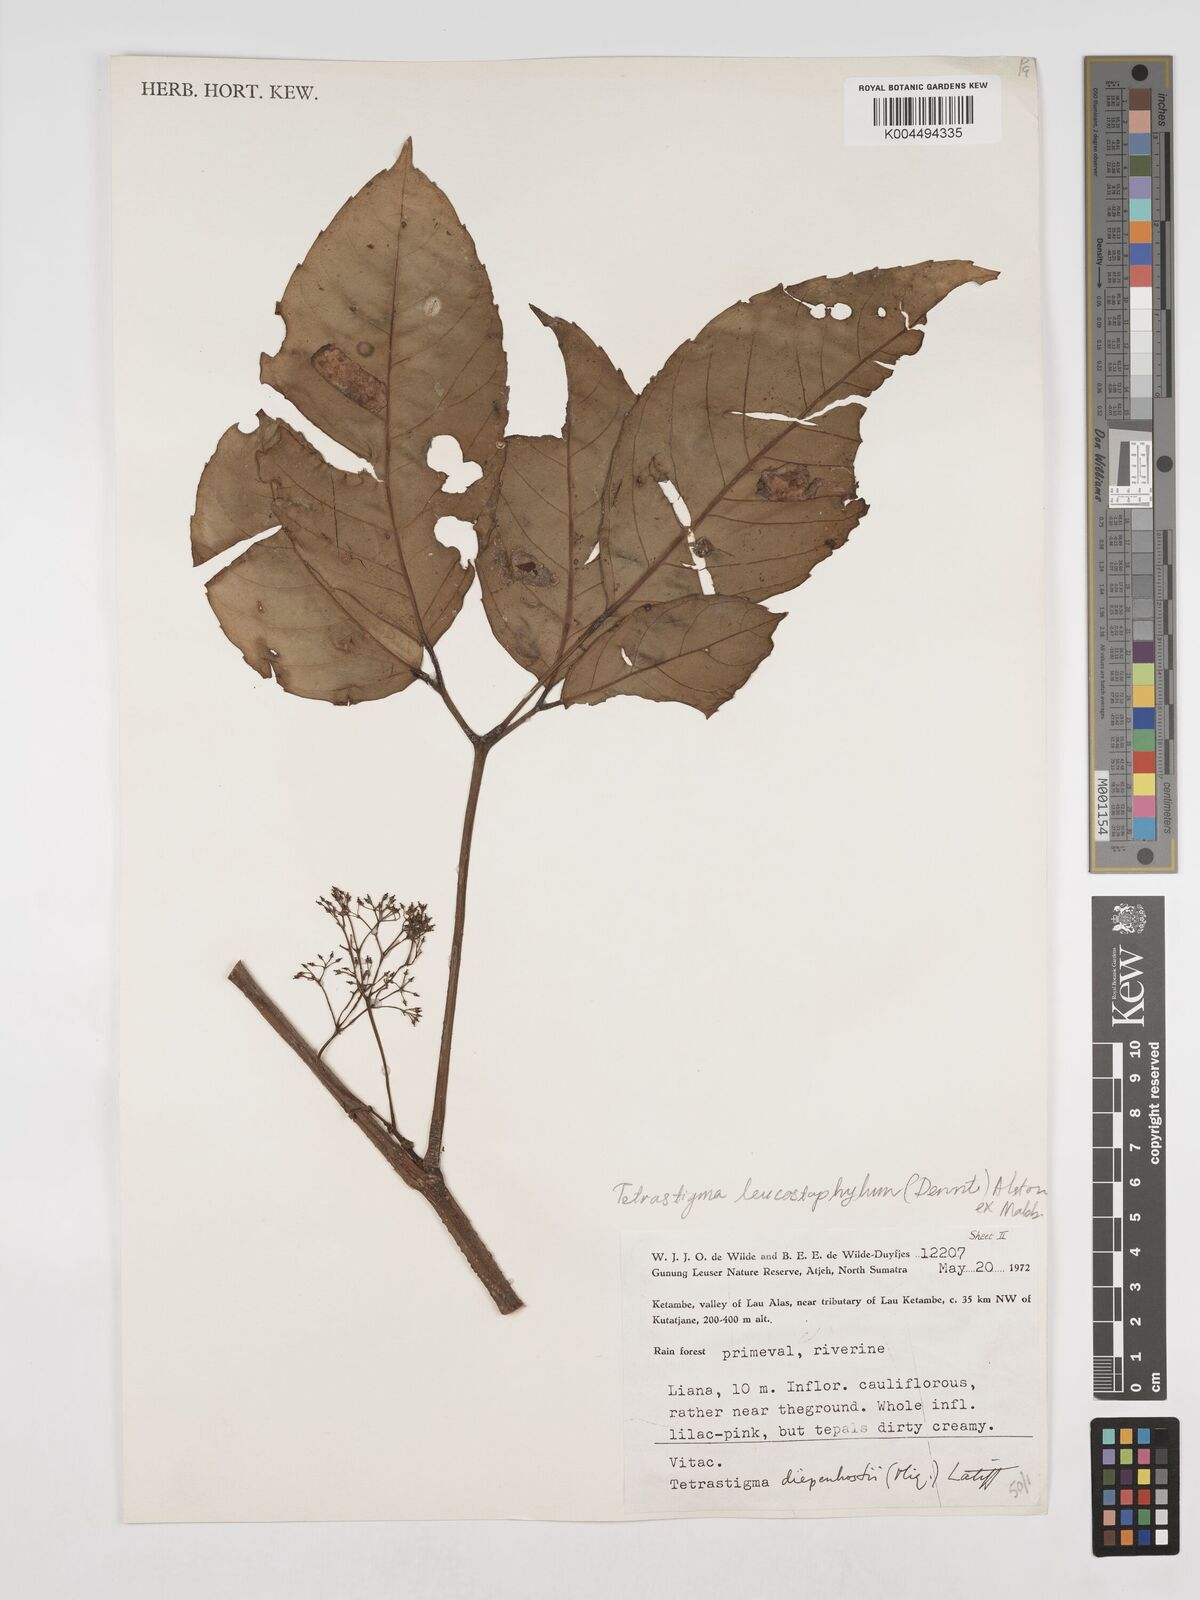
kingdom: Plantae
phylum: Tracheophyta
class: Magnoliopsida
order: Vitales
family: Vitaceae
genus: Tetrastigma
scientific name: Tetrastigma leucostaphylum
